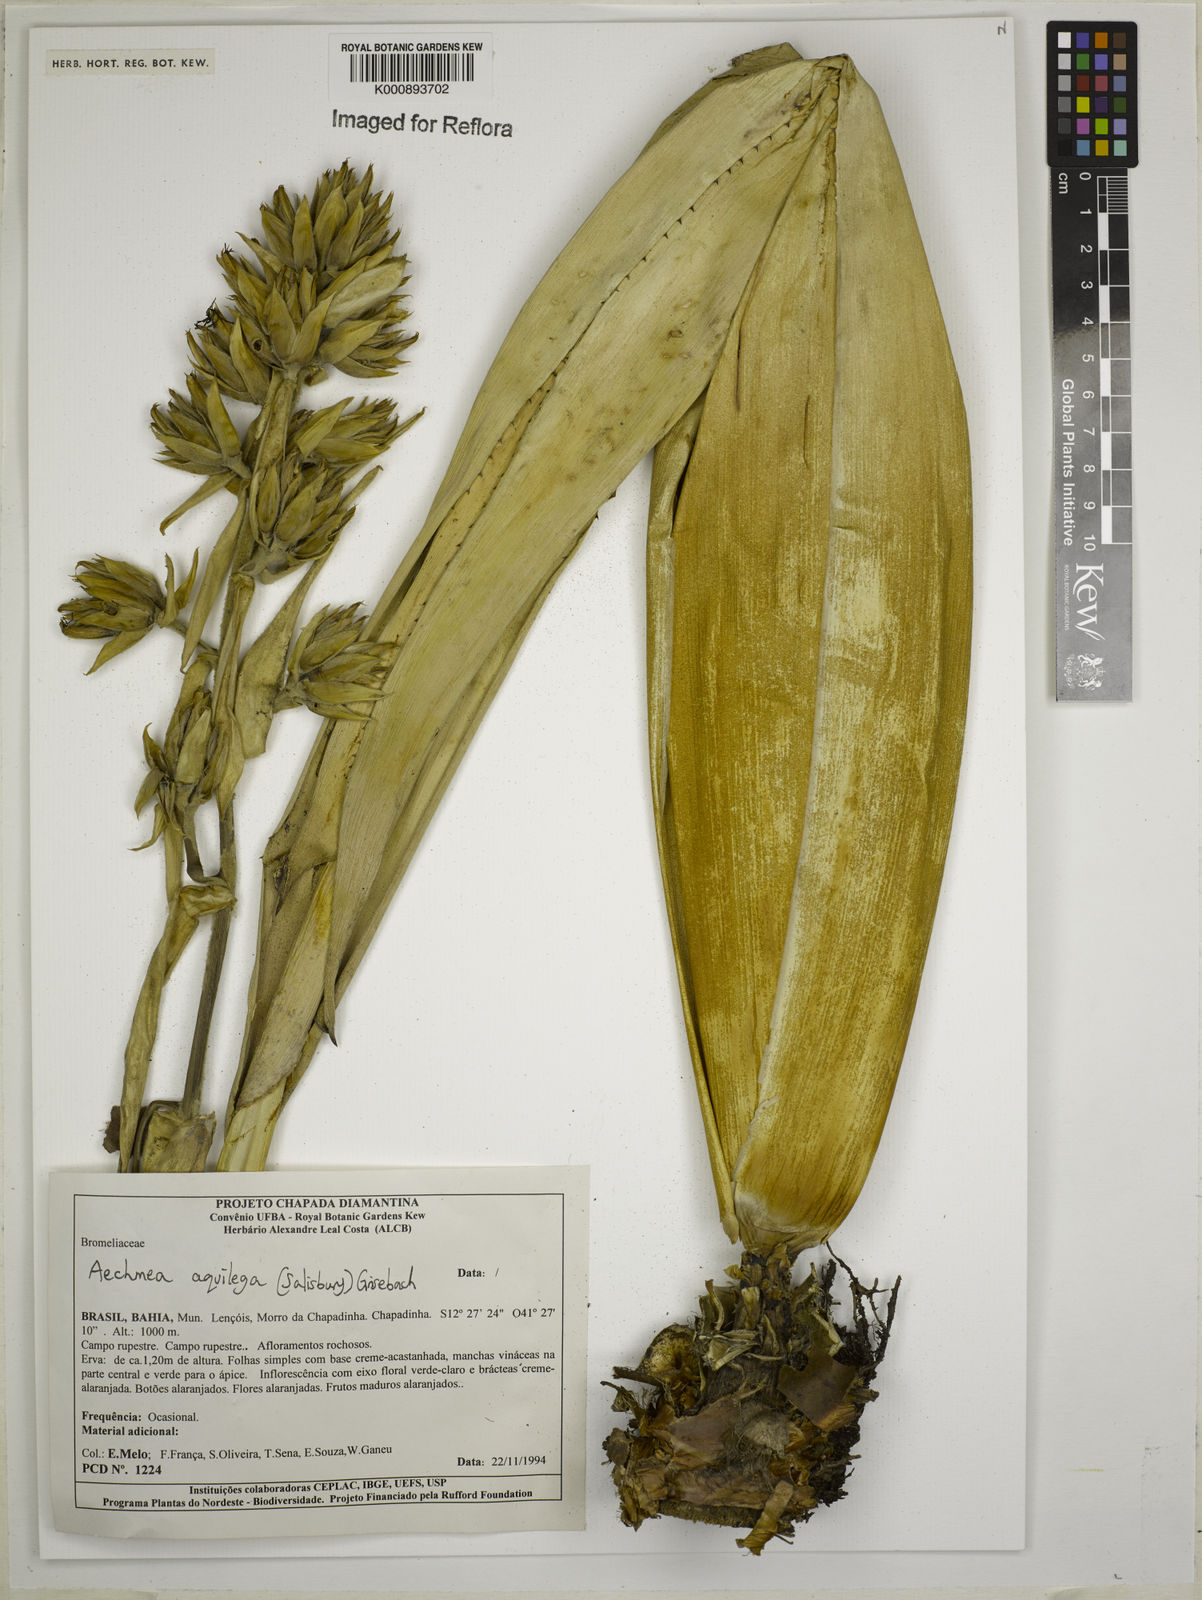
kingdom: Plantae
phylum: Tracheophyta
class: Liliopsida
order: Poales
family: Bromeliaceae
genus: Aechmea
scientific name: Aechmea aquilega
